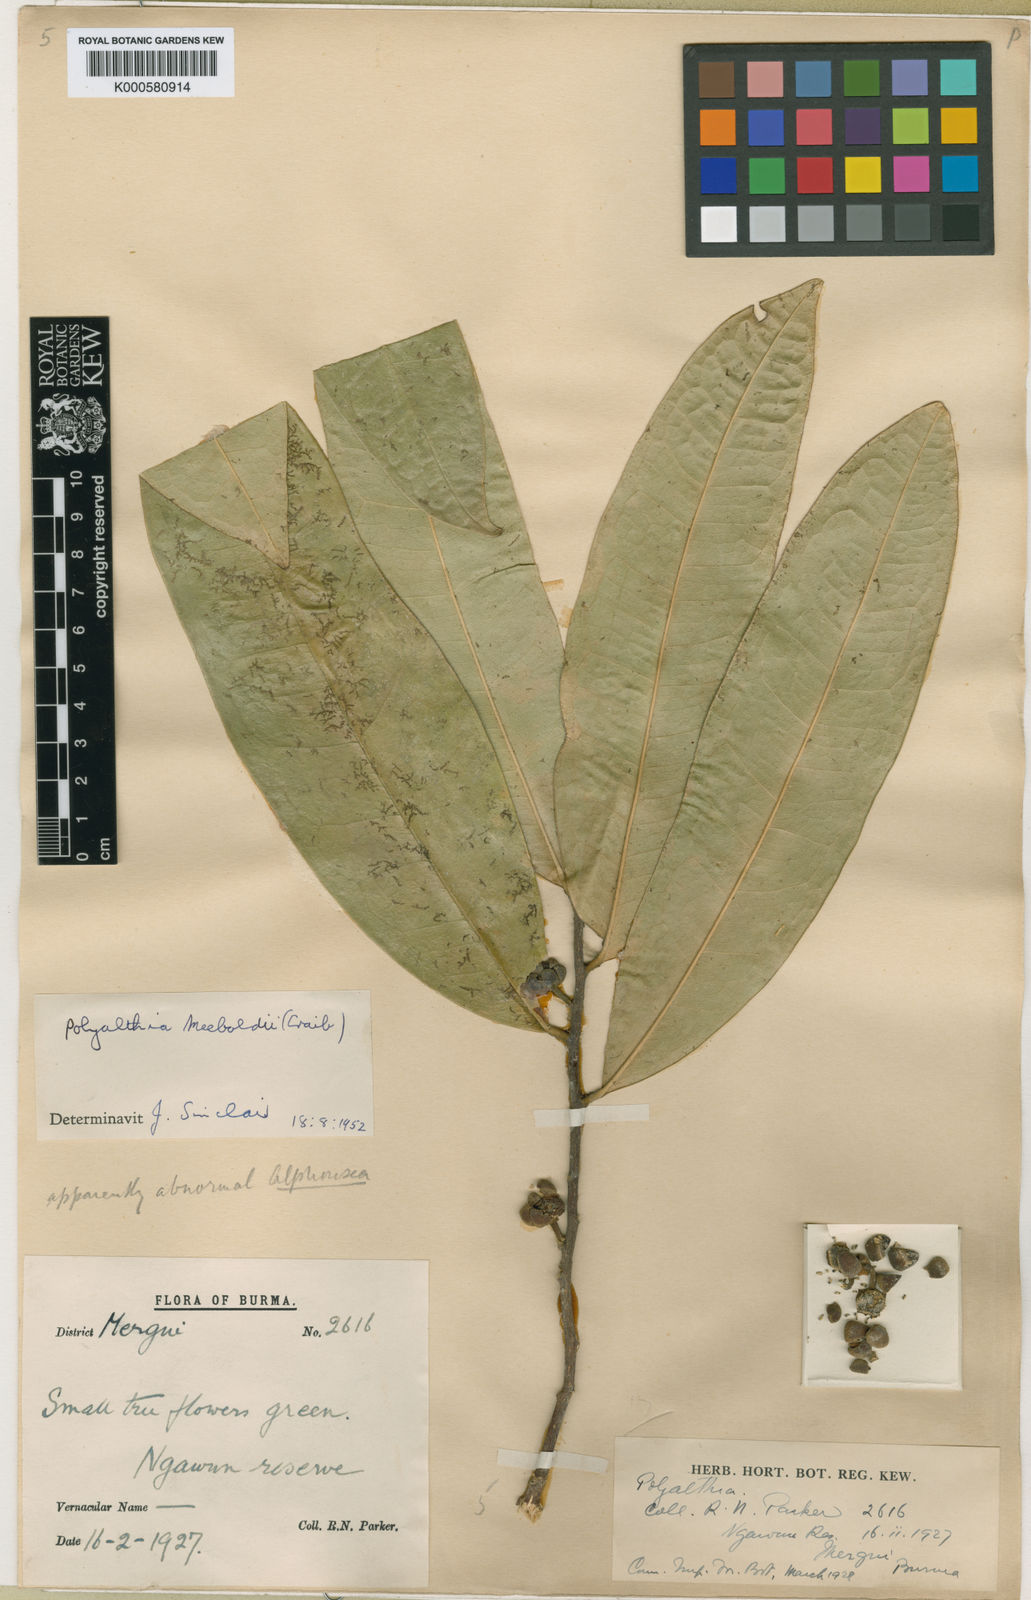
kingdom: Plantae
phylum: Tracheophyta
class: Magnoliopsida
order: Magnoliales
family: Annonaceae
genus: Marsypopetalum
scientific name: Marsypopetalum crassum
